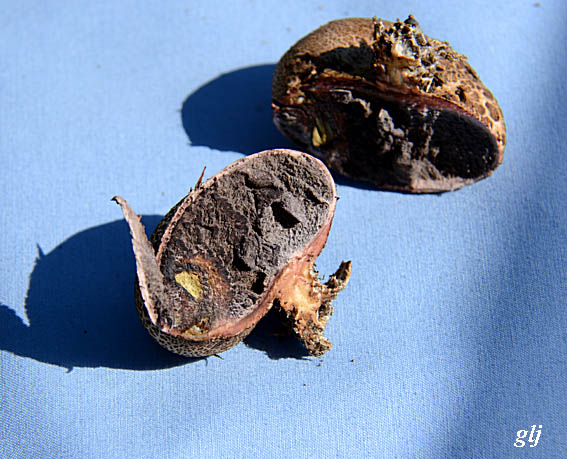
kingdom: Fungi
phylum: Basidiomycota
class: Agaricomycetes
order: Boletales
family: Sclerodermataceae
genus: Scleroderma
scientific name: Scleroderma areolatum
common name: plettet bruskbold
